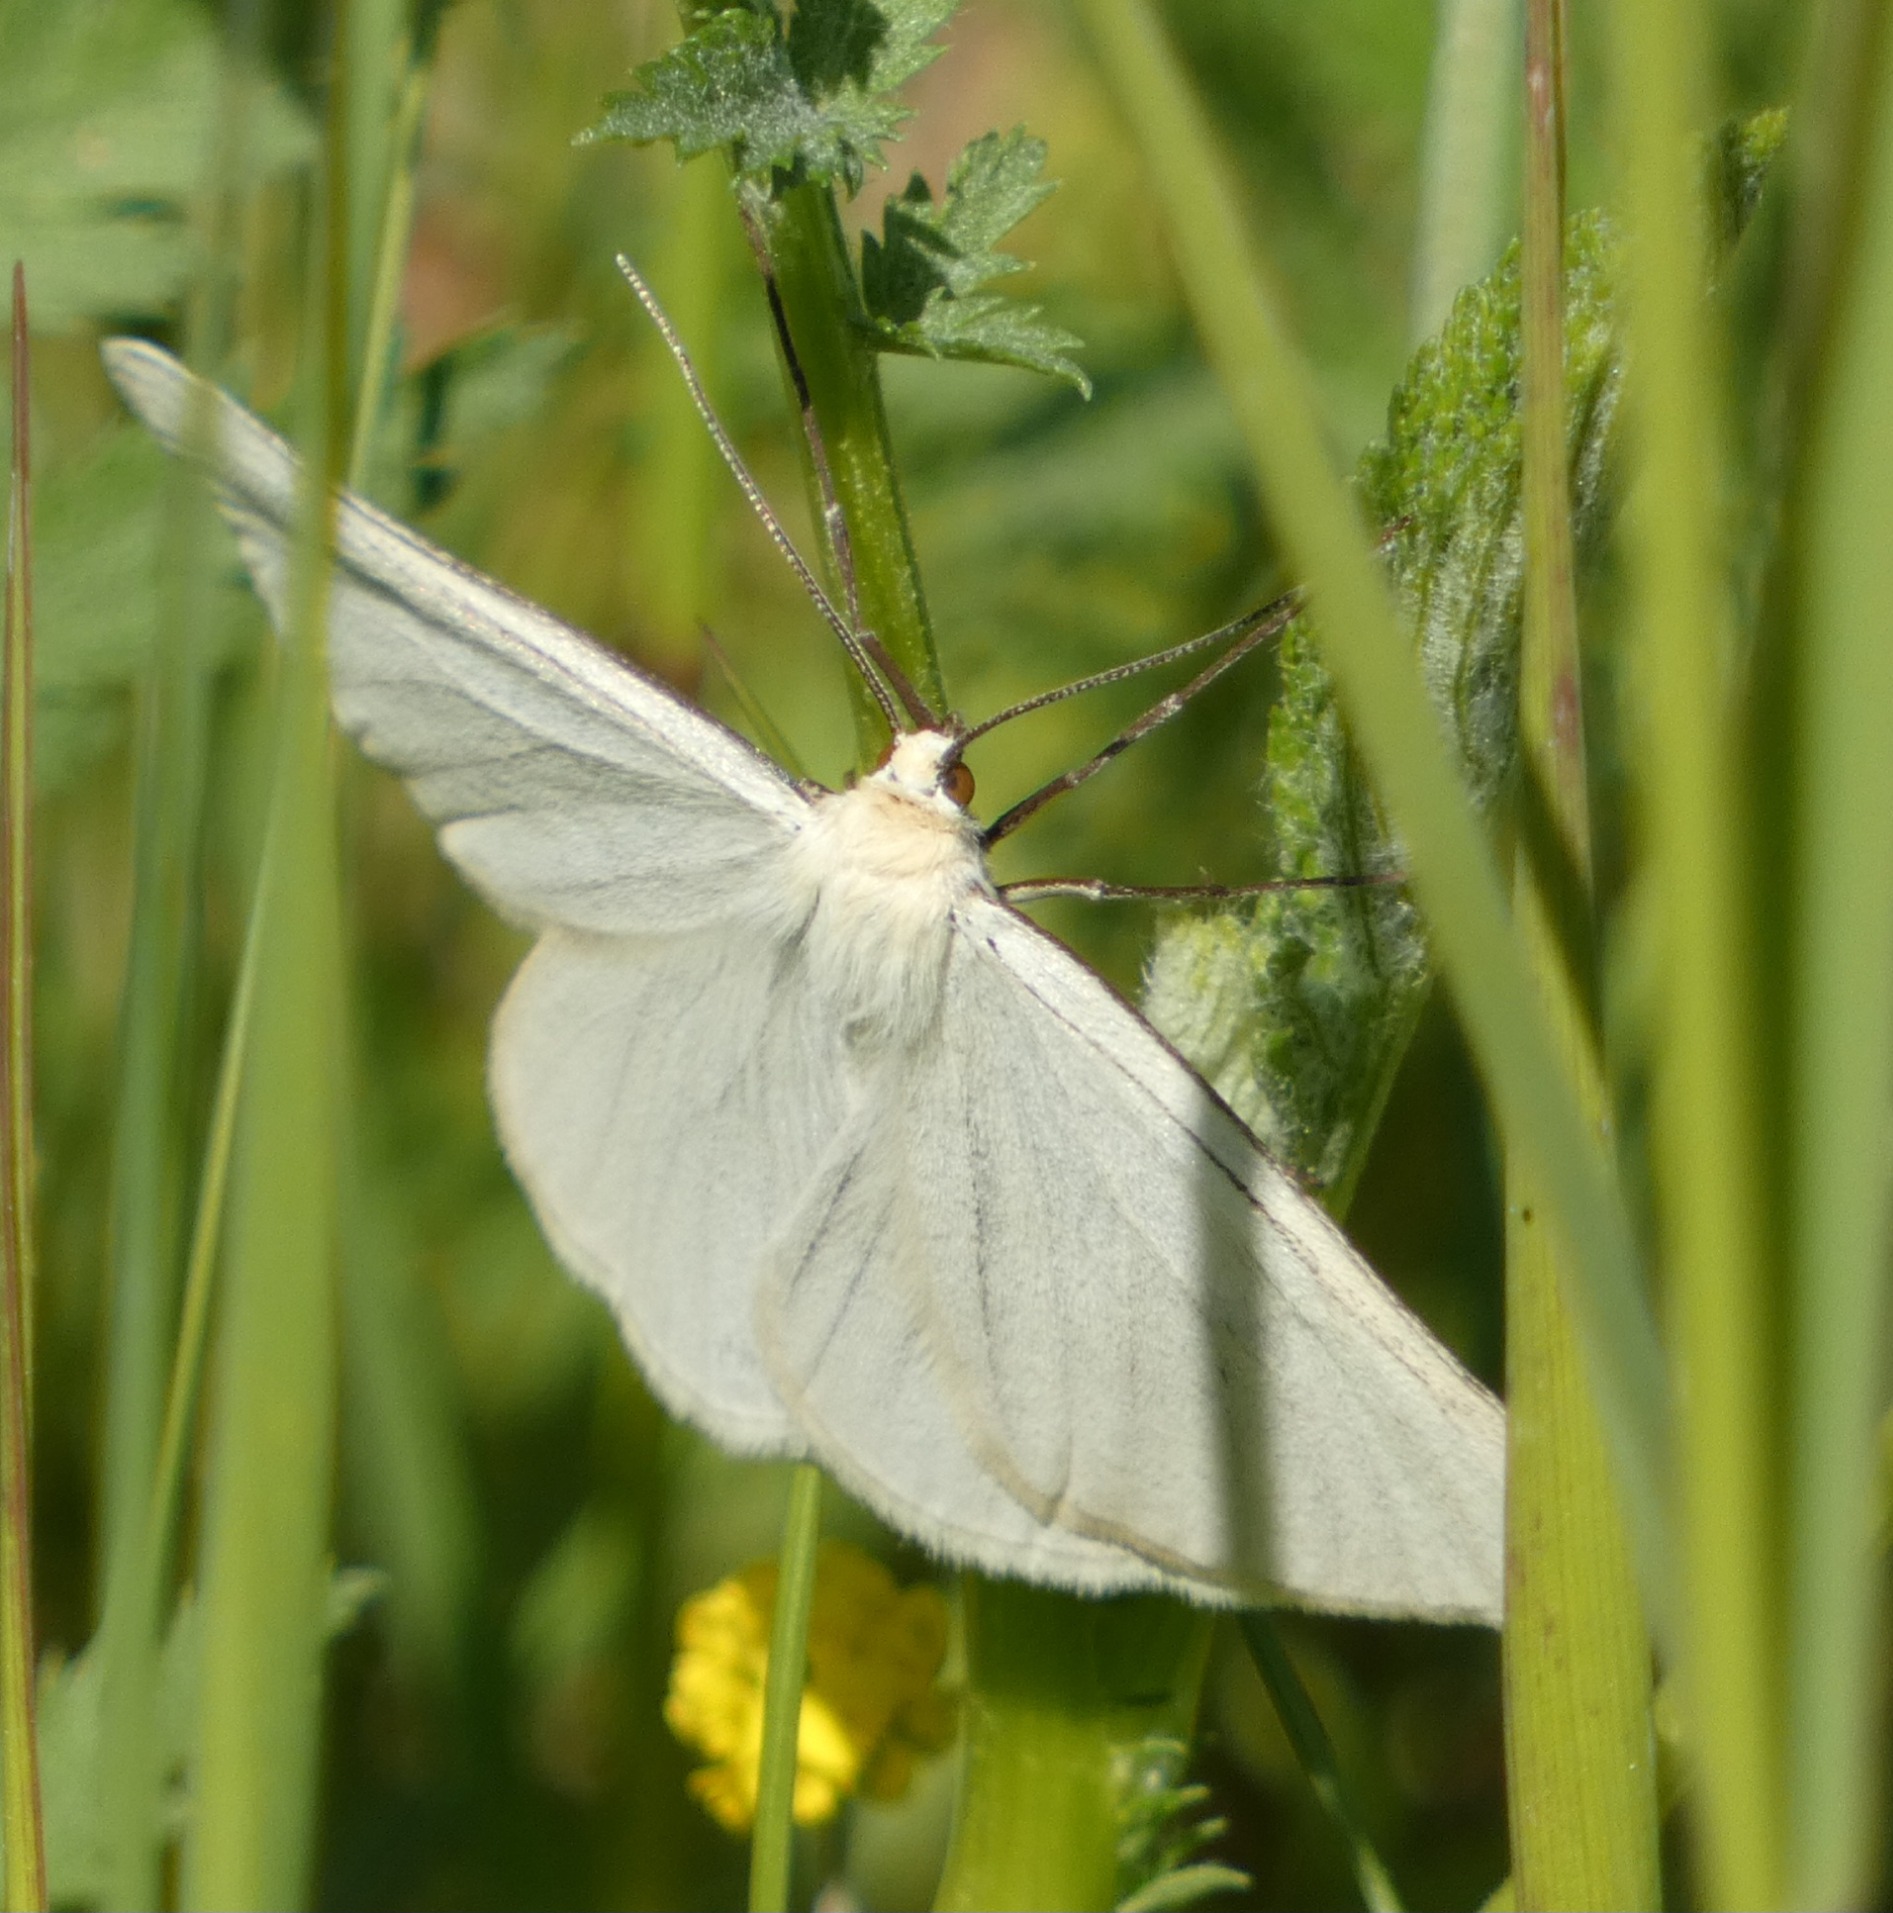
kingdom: Animalia
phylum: Arthropoda
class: Insecta
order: Lepidoptera
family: Geometridae
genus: Siona
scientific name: Siona lineata
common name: Hvidvingemåler
